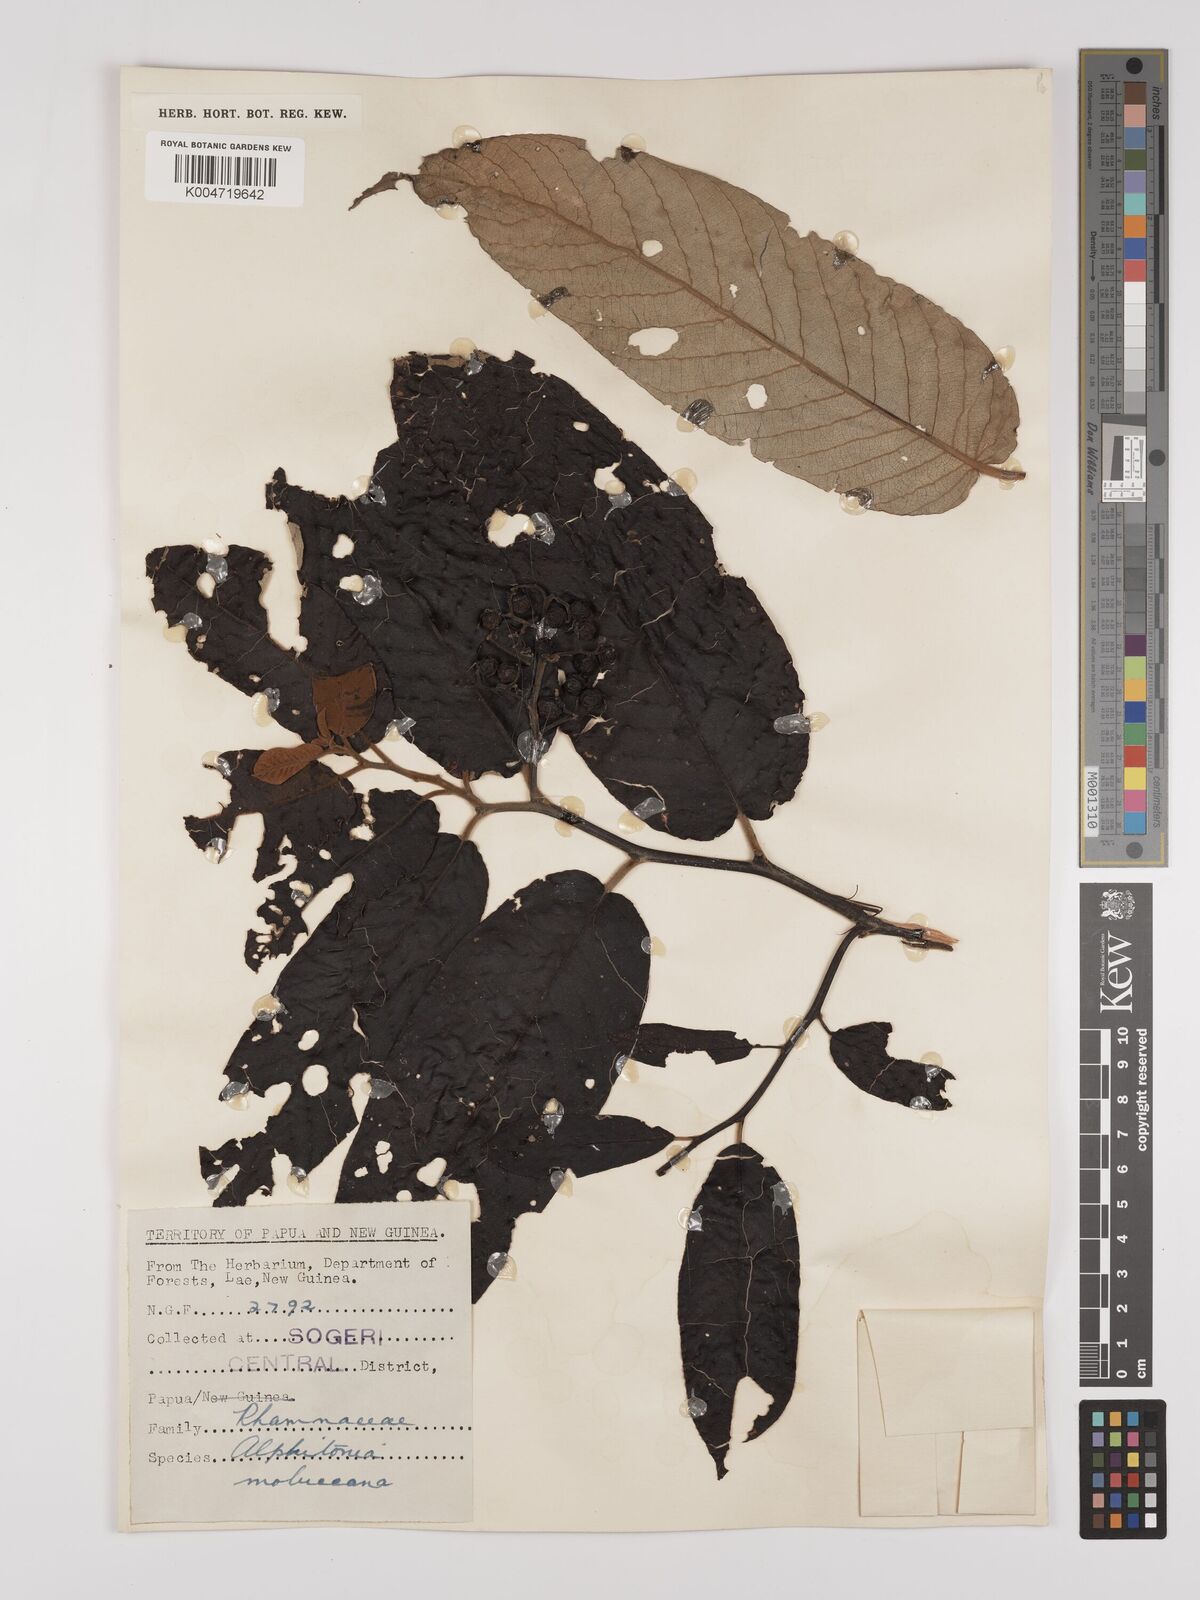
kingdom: Plantae
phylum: Tracheophyta
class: Magnoliopsida
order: Rosales
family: Rhamnaceae
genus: Alphitonia
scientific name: Alphitonia incana
